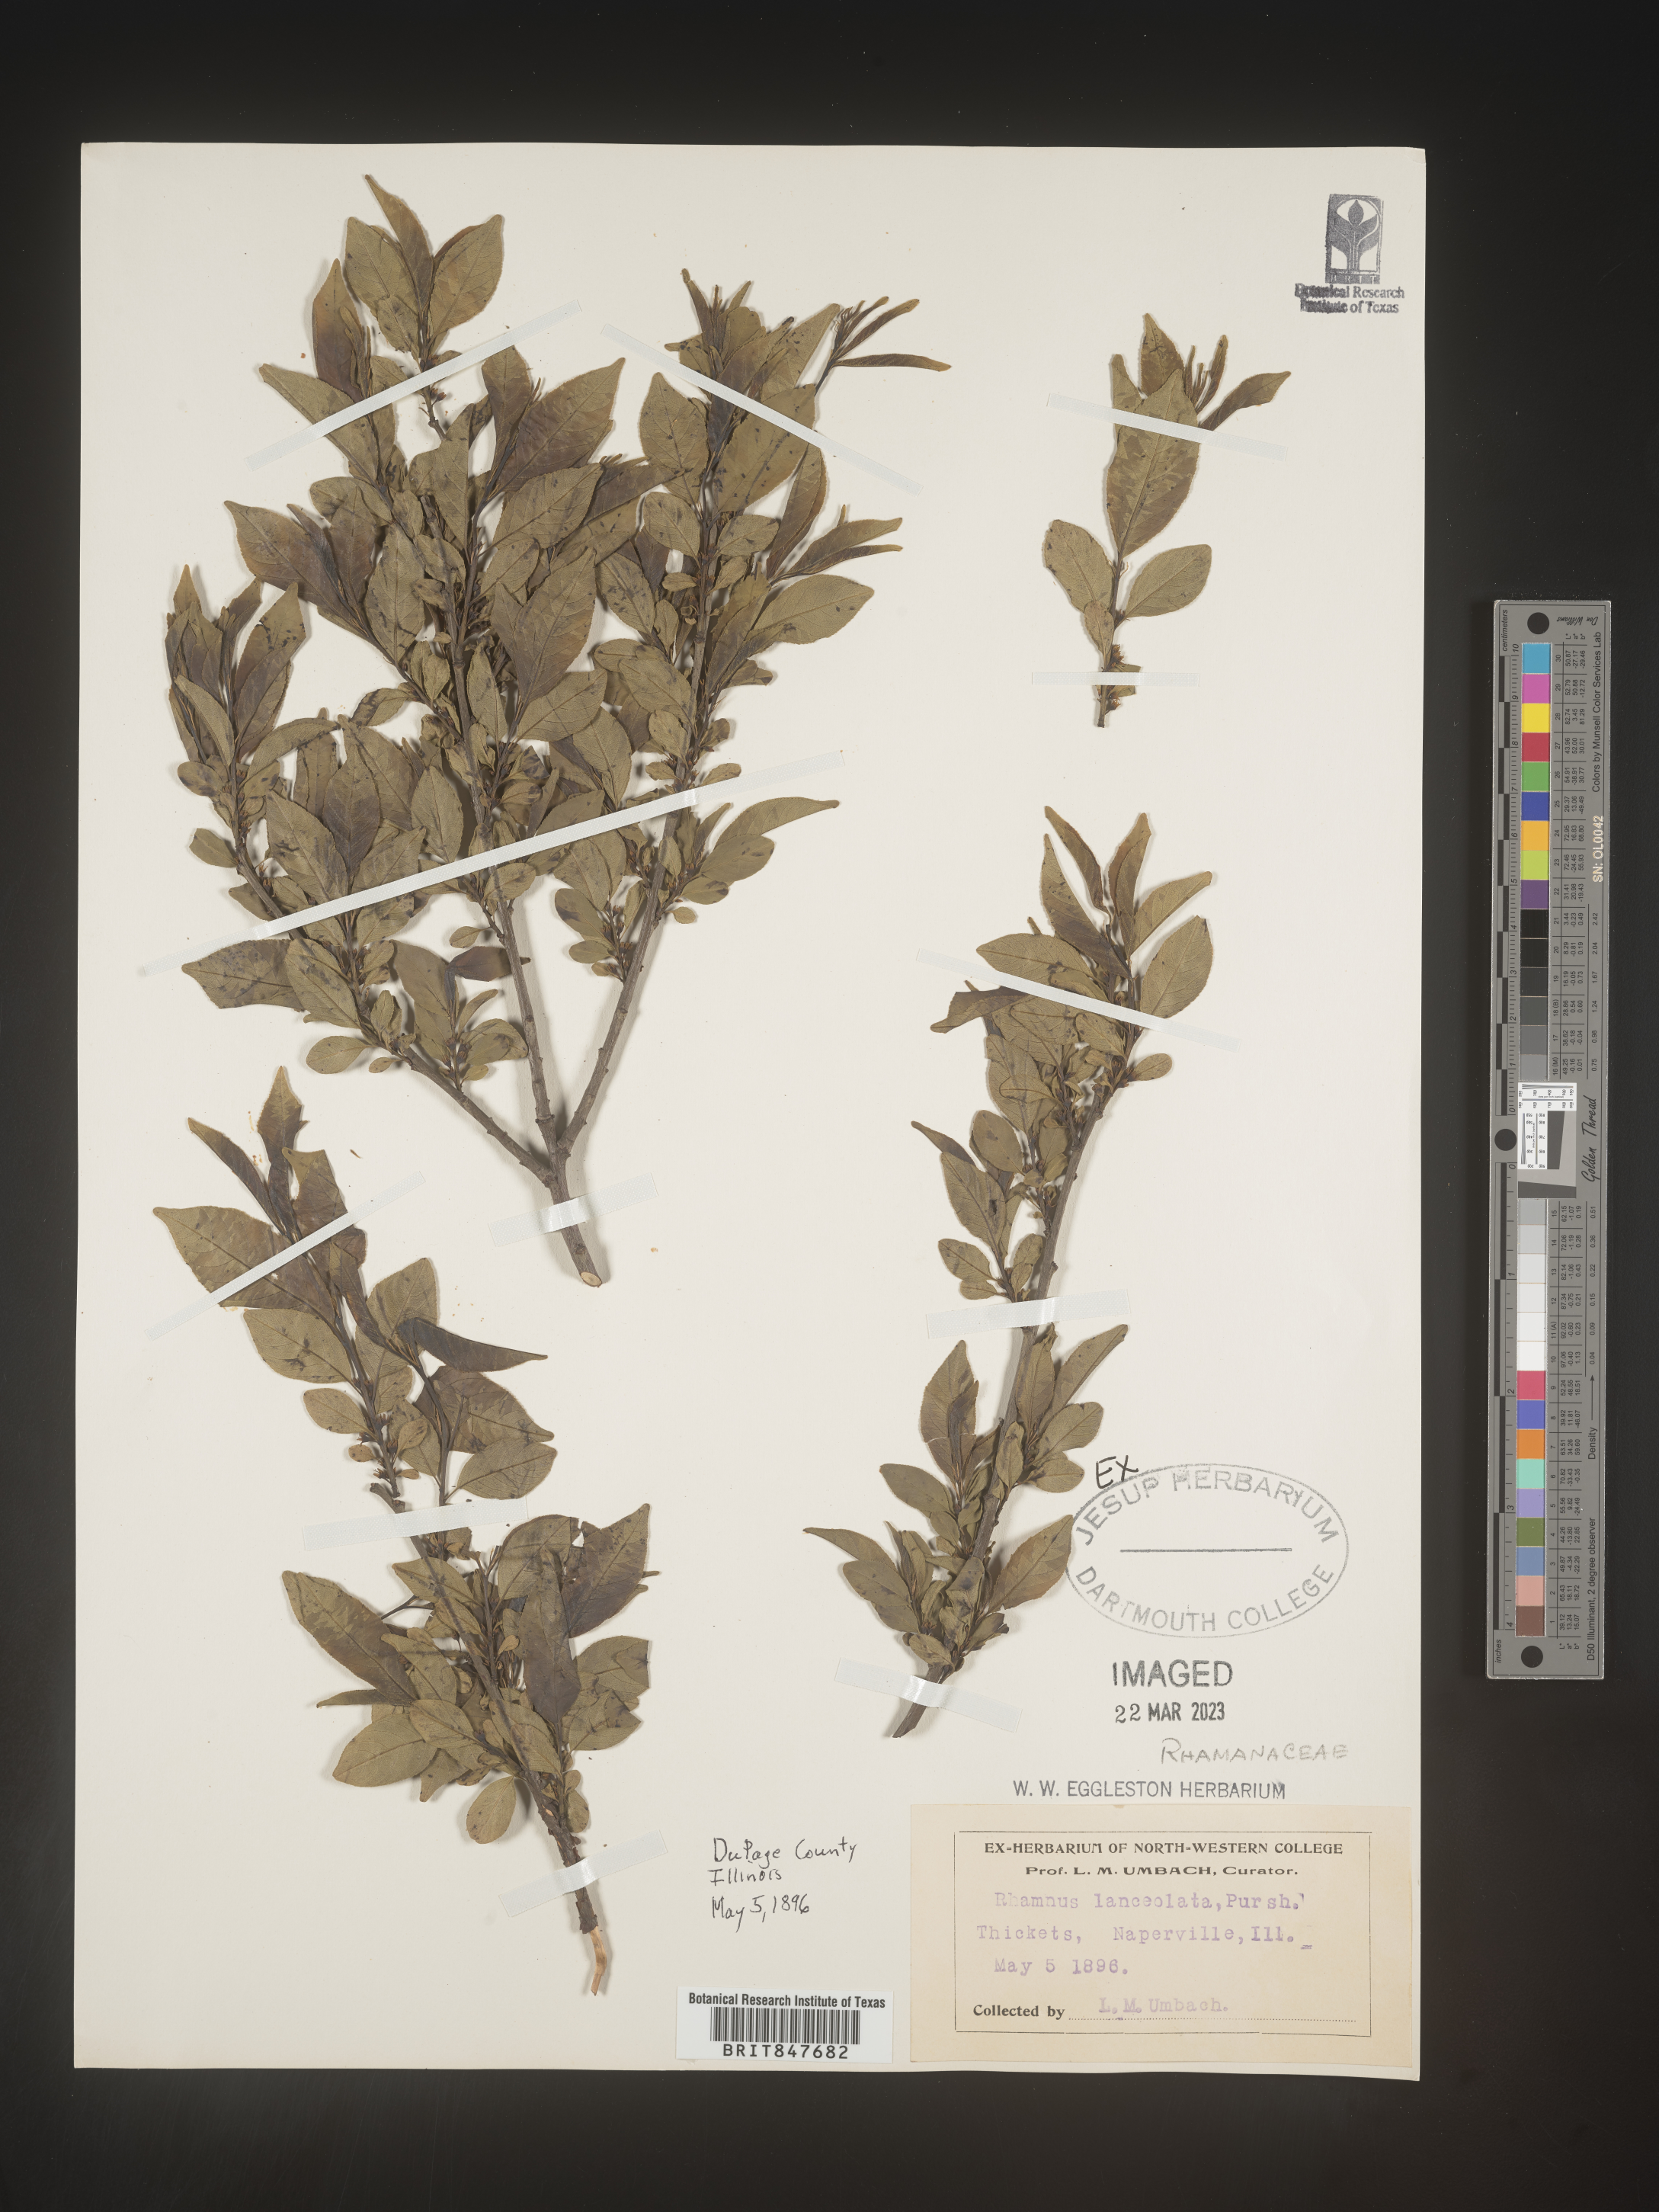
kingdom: Plantae
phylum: Tracheophyta
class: Magnoliopsida
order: Rosales
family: Rhamnaceae
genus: Endotropis
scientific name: Endotropis lanceolata
